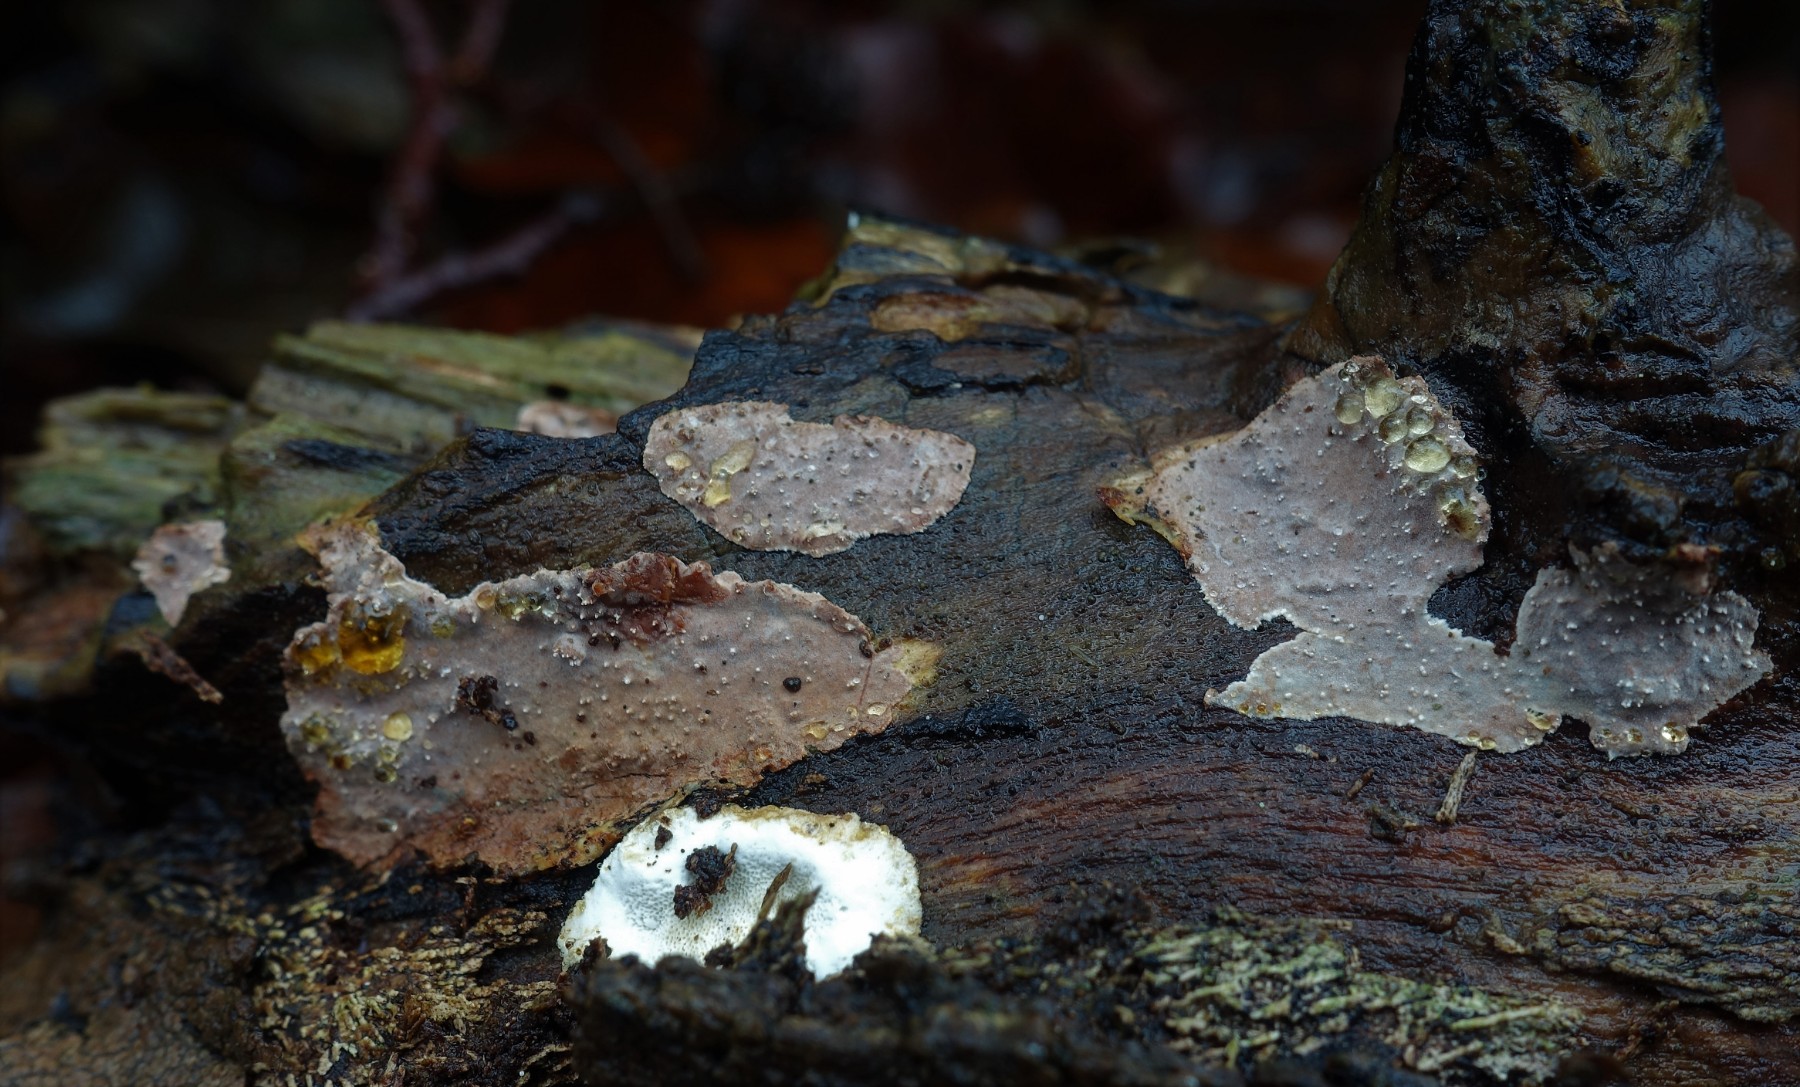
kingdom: Fungi
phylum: Basidiomycota
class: Agaricomycetes
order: Auriculariales
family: Auriculariaceae
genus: Heteroradulum
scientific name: Heteroradulum deglubens
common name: bævreskorpe
